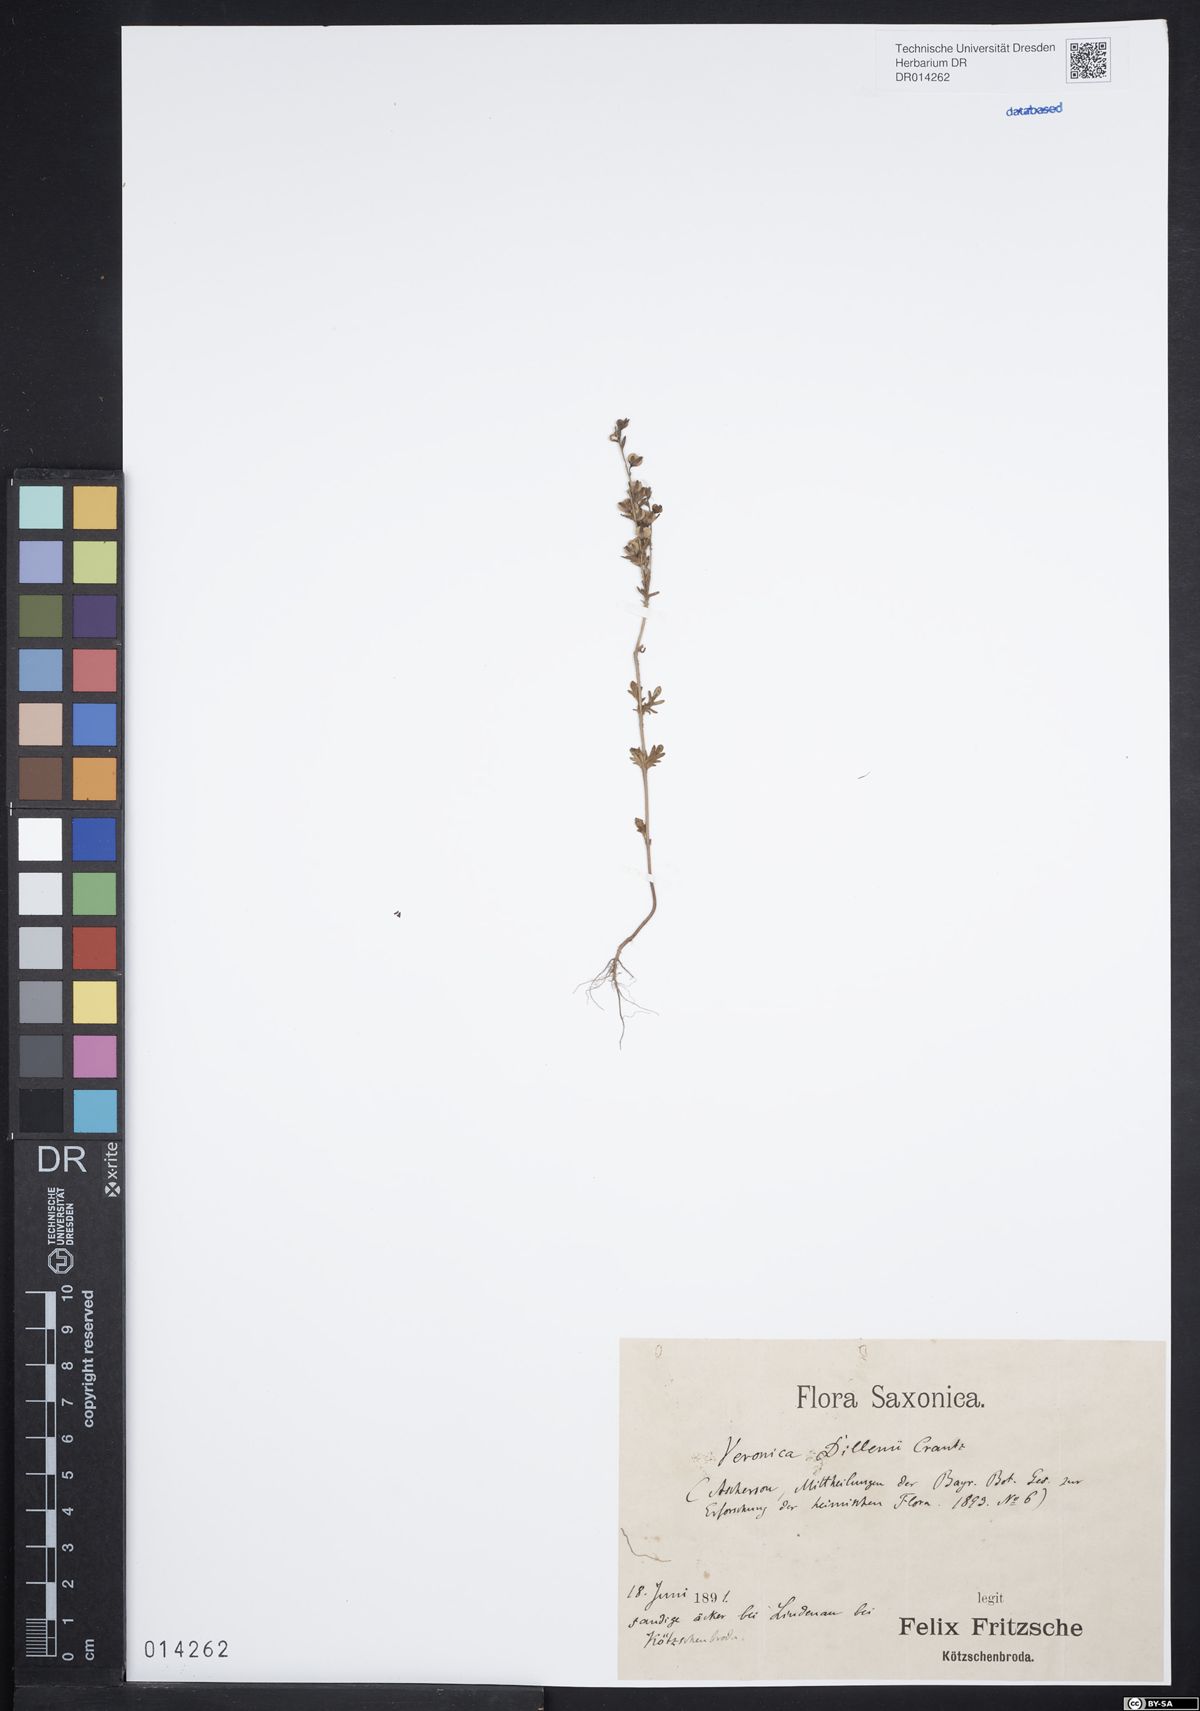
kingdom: Plantae
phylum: Tracheophyta
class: Magnoliopsida
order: Lamiales
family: Plantaginaceae
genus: Veronica
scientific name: Veronica dillenii
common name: Dillenius' speedwell
